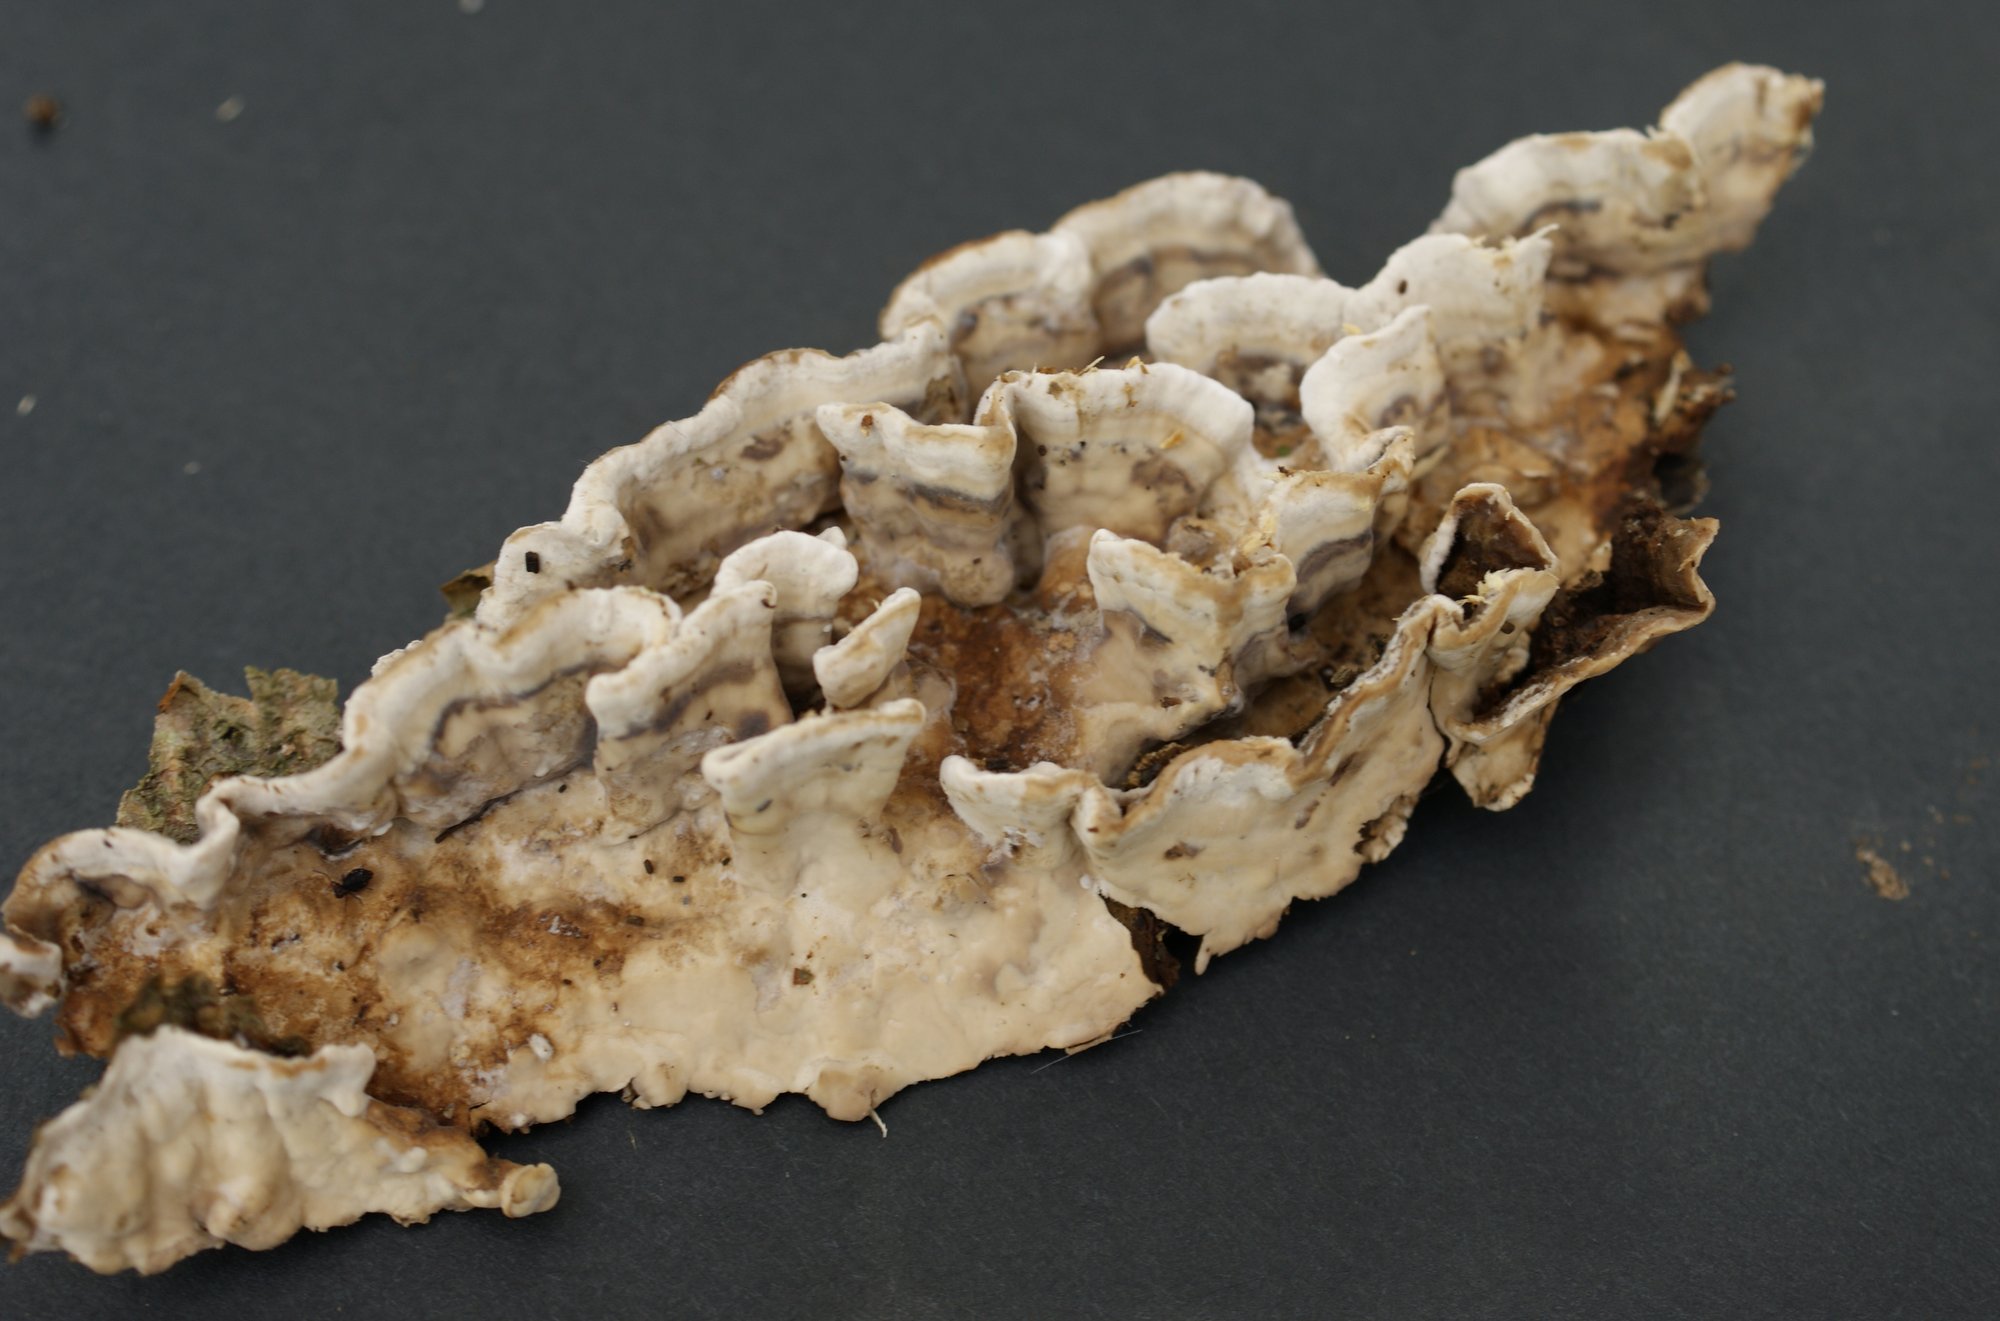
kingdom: Fungi
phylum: Basidiomycota
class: Agaricomycetes
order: Russulales
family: Hericiaceae
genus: Laxitextum
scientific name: Laxitextum bicolor
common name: tvefarvet filtskind
